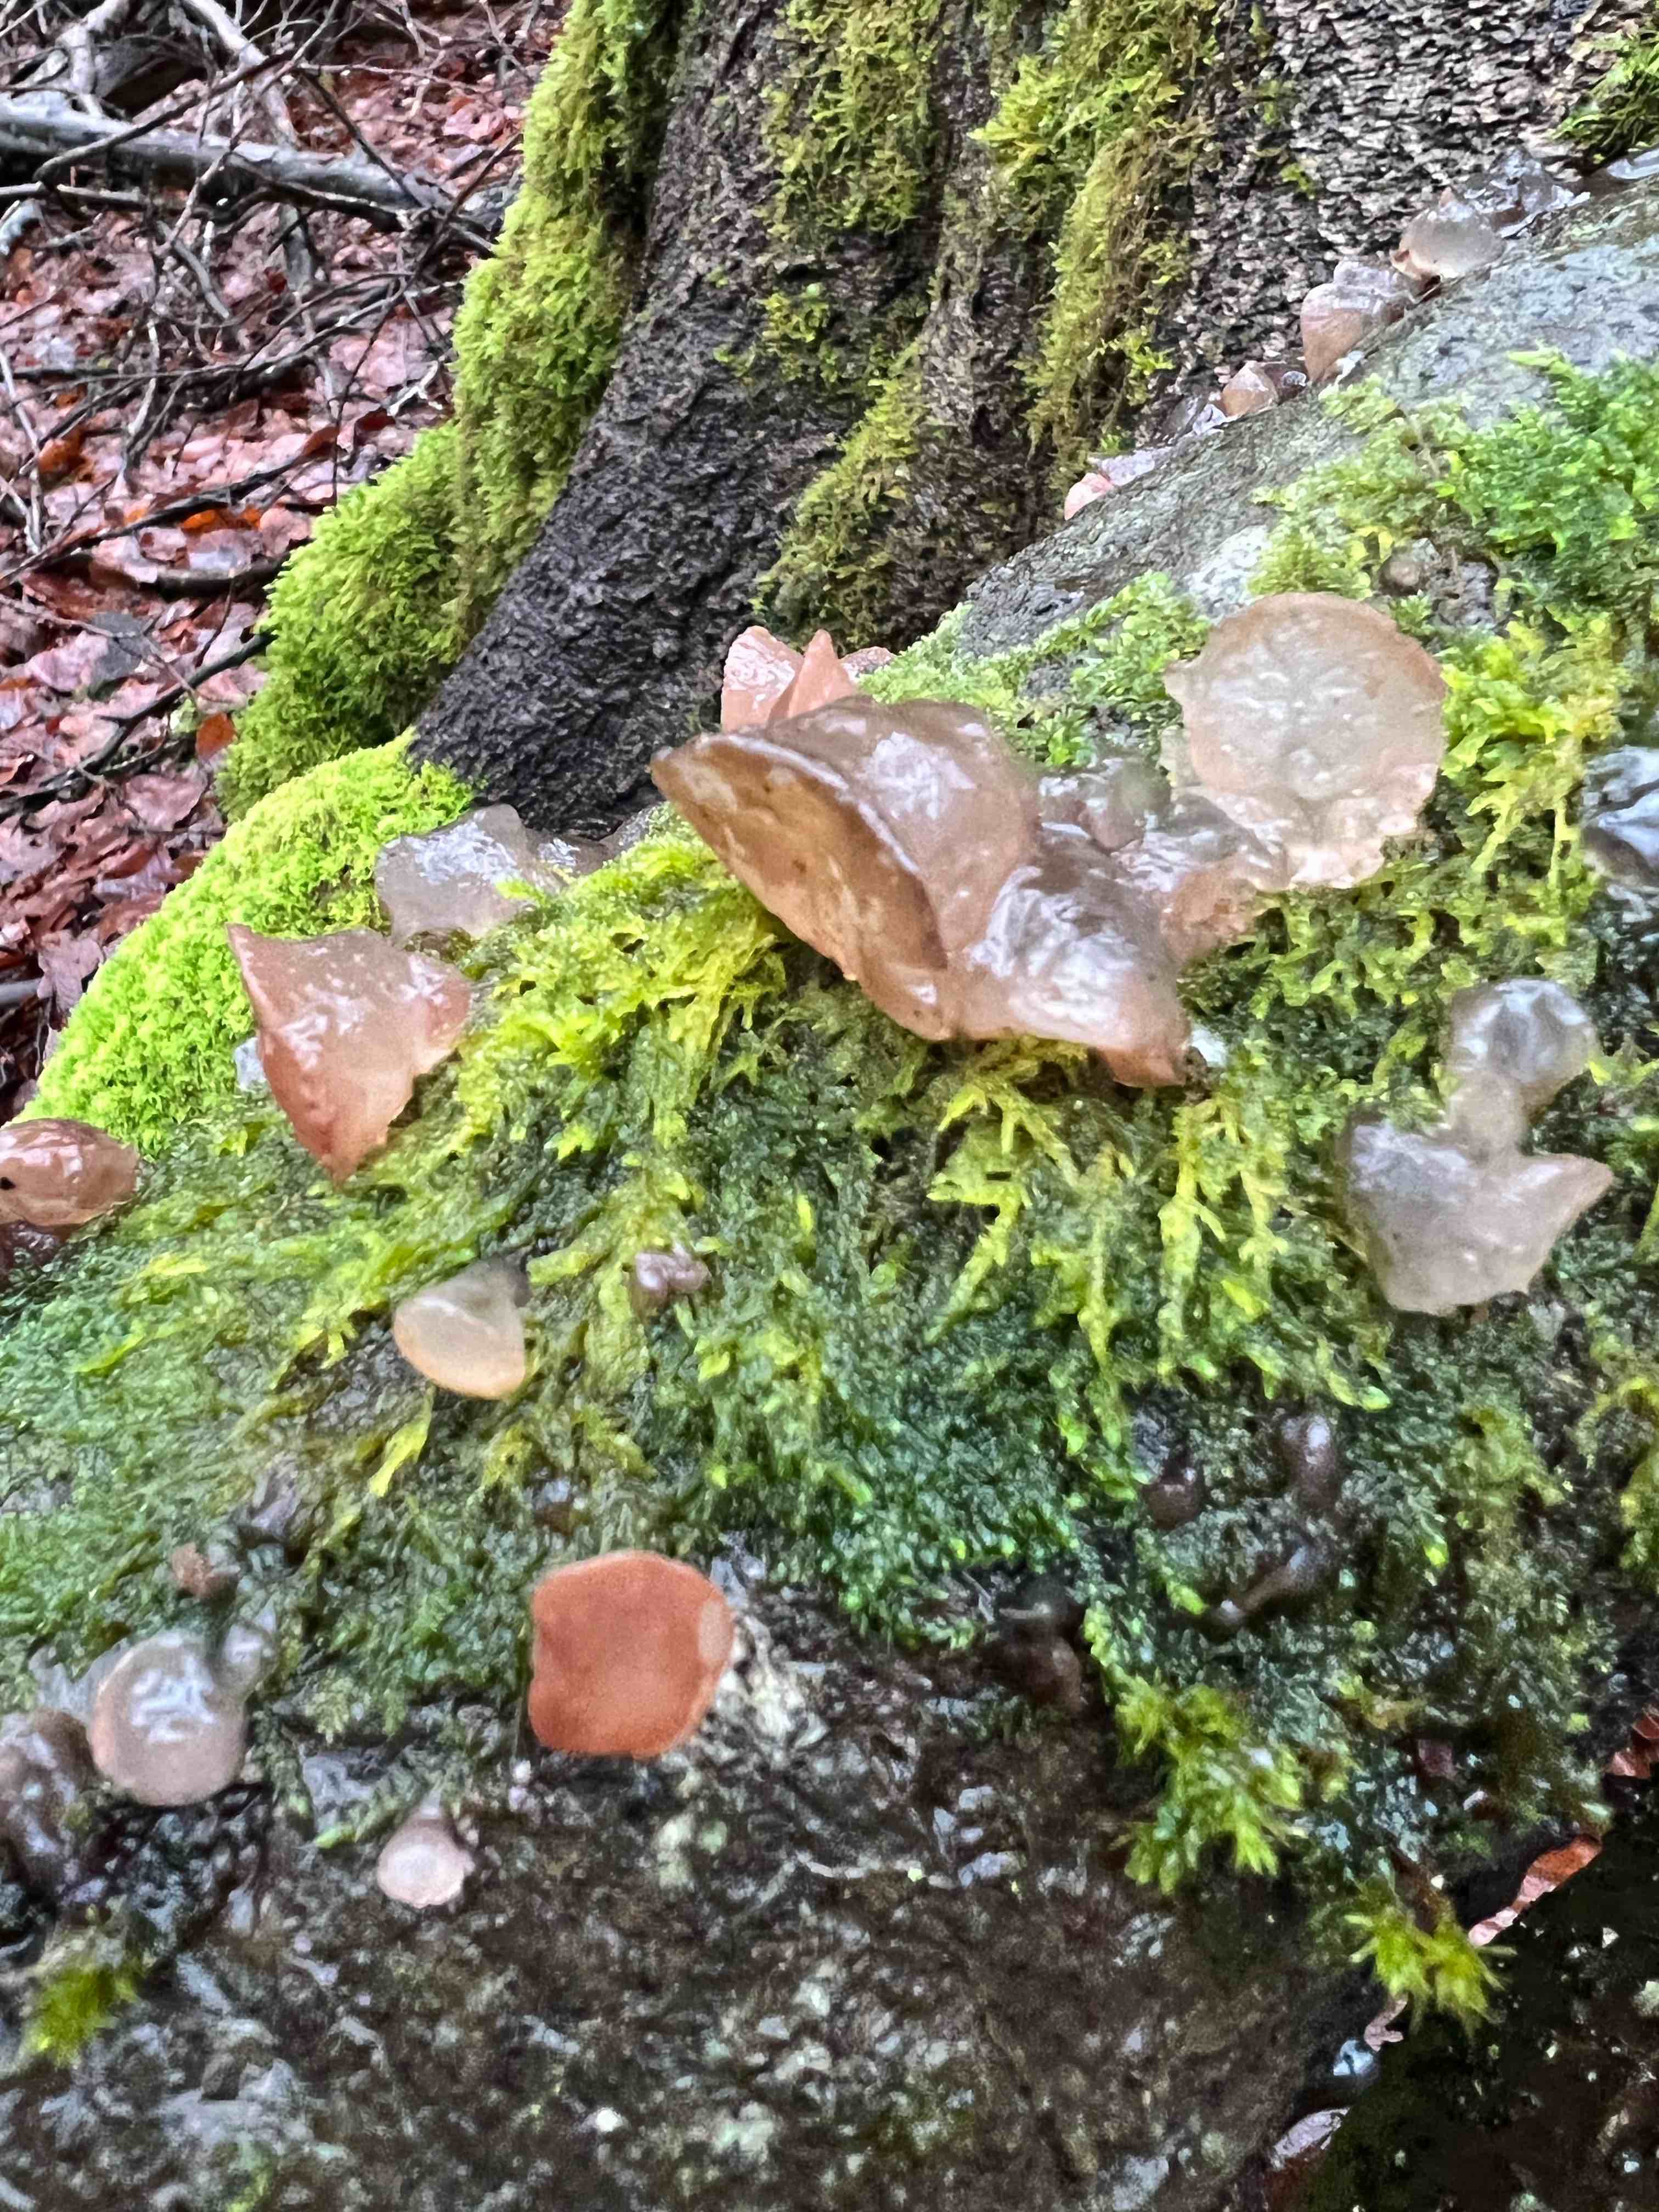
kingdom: Fungi
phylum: Ascomycota
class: Leotiomycetes
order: Helotiales
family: Gelatinodiscaceae
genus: Neobulgaria
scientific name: Neobulgaria pura
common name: bleg bævreskive
